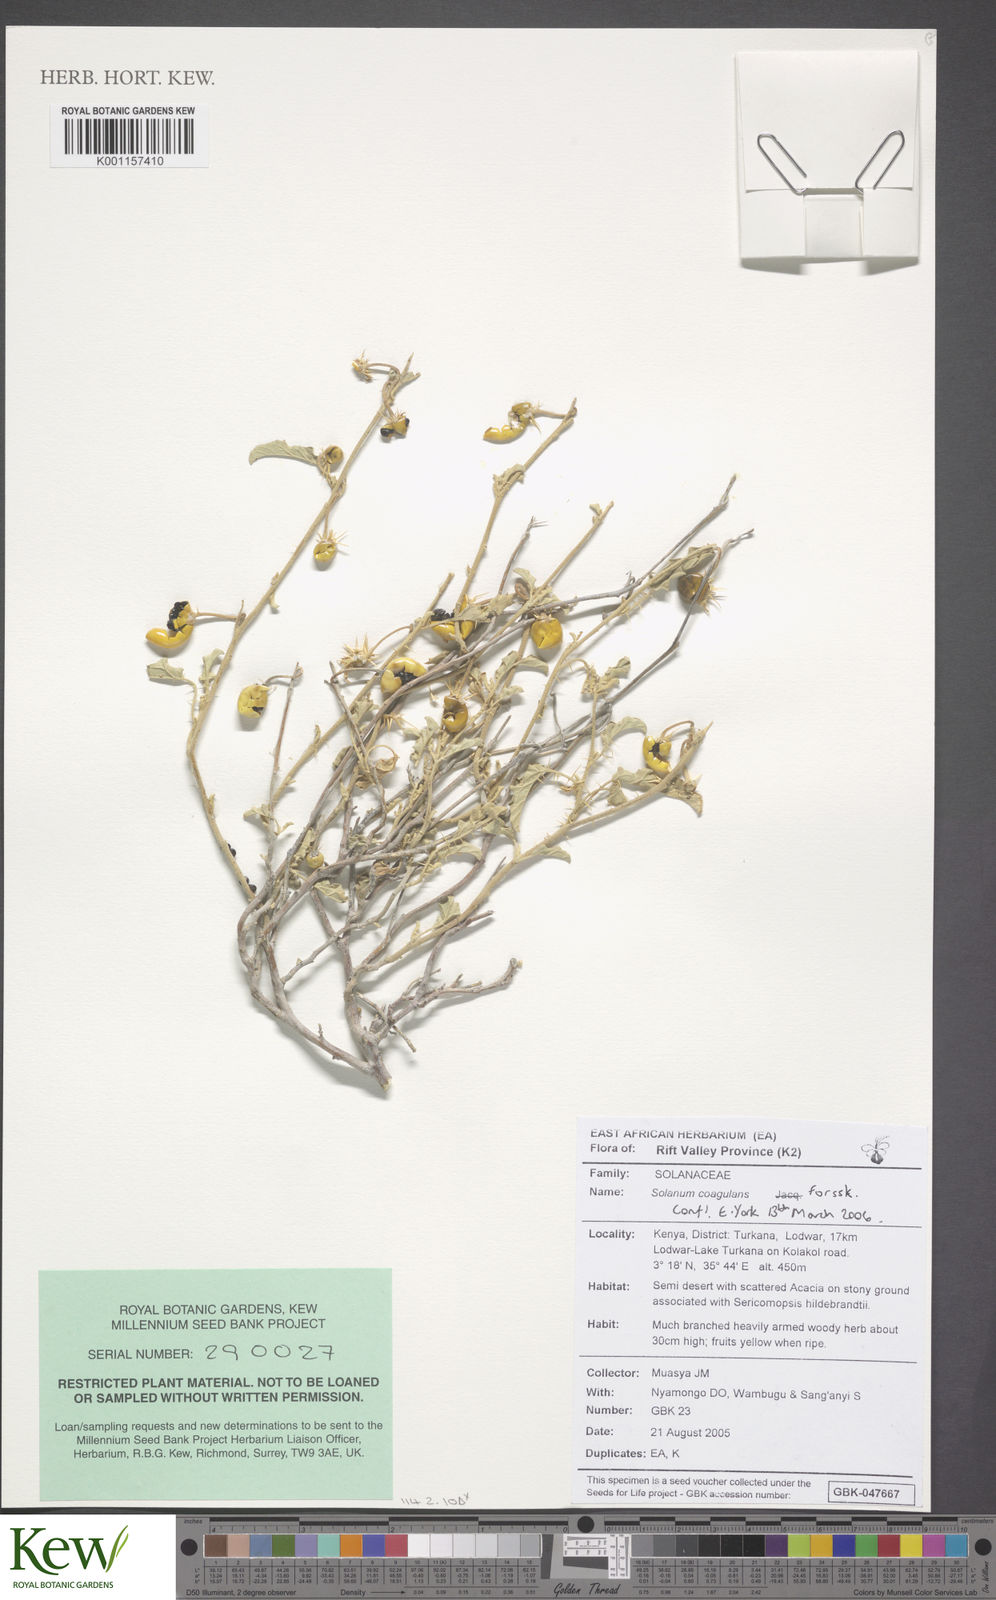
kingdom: Plantae
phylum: Tracheophyta
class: Magnoliopsida
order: Solanales
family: Solanaceae
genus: Solanum
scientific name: Solanum coagulans
